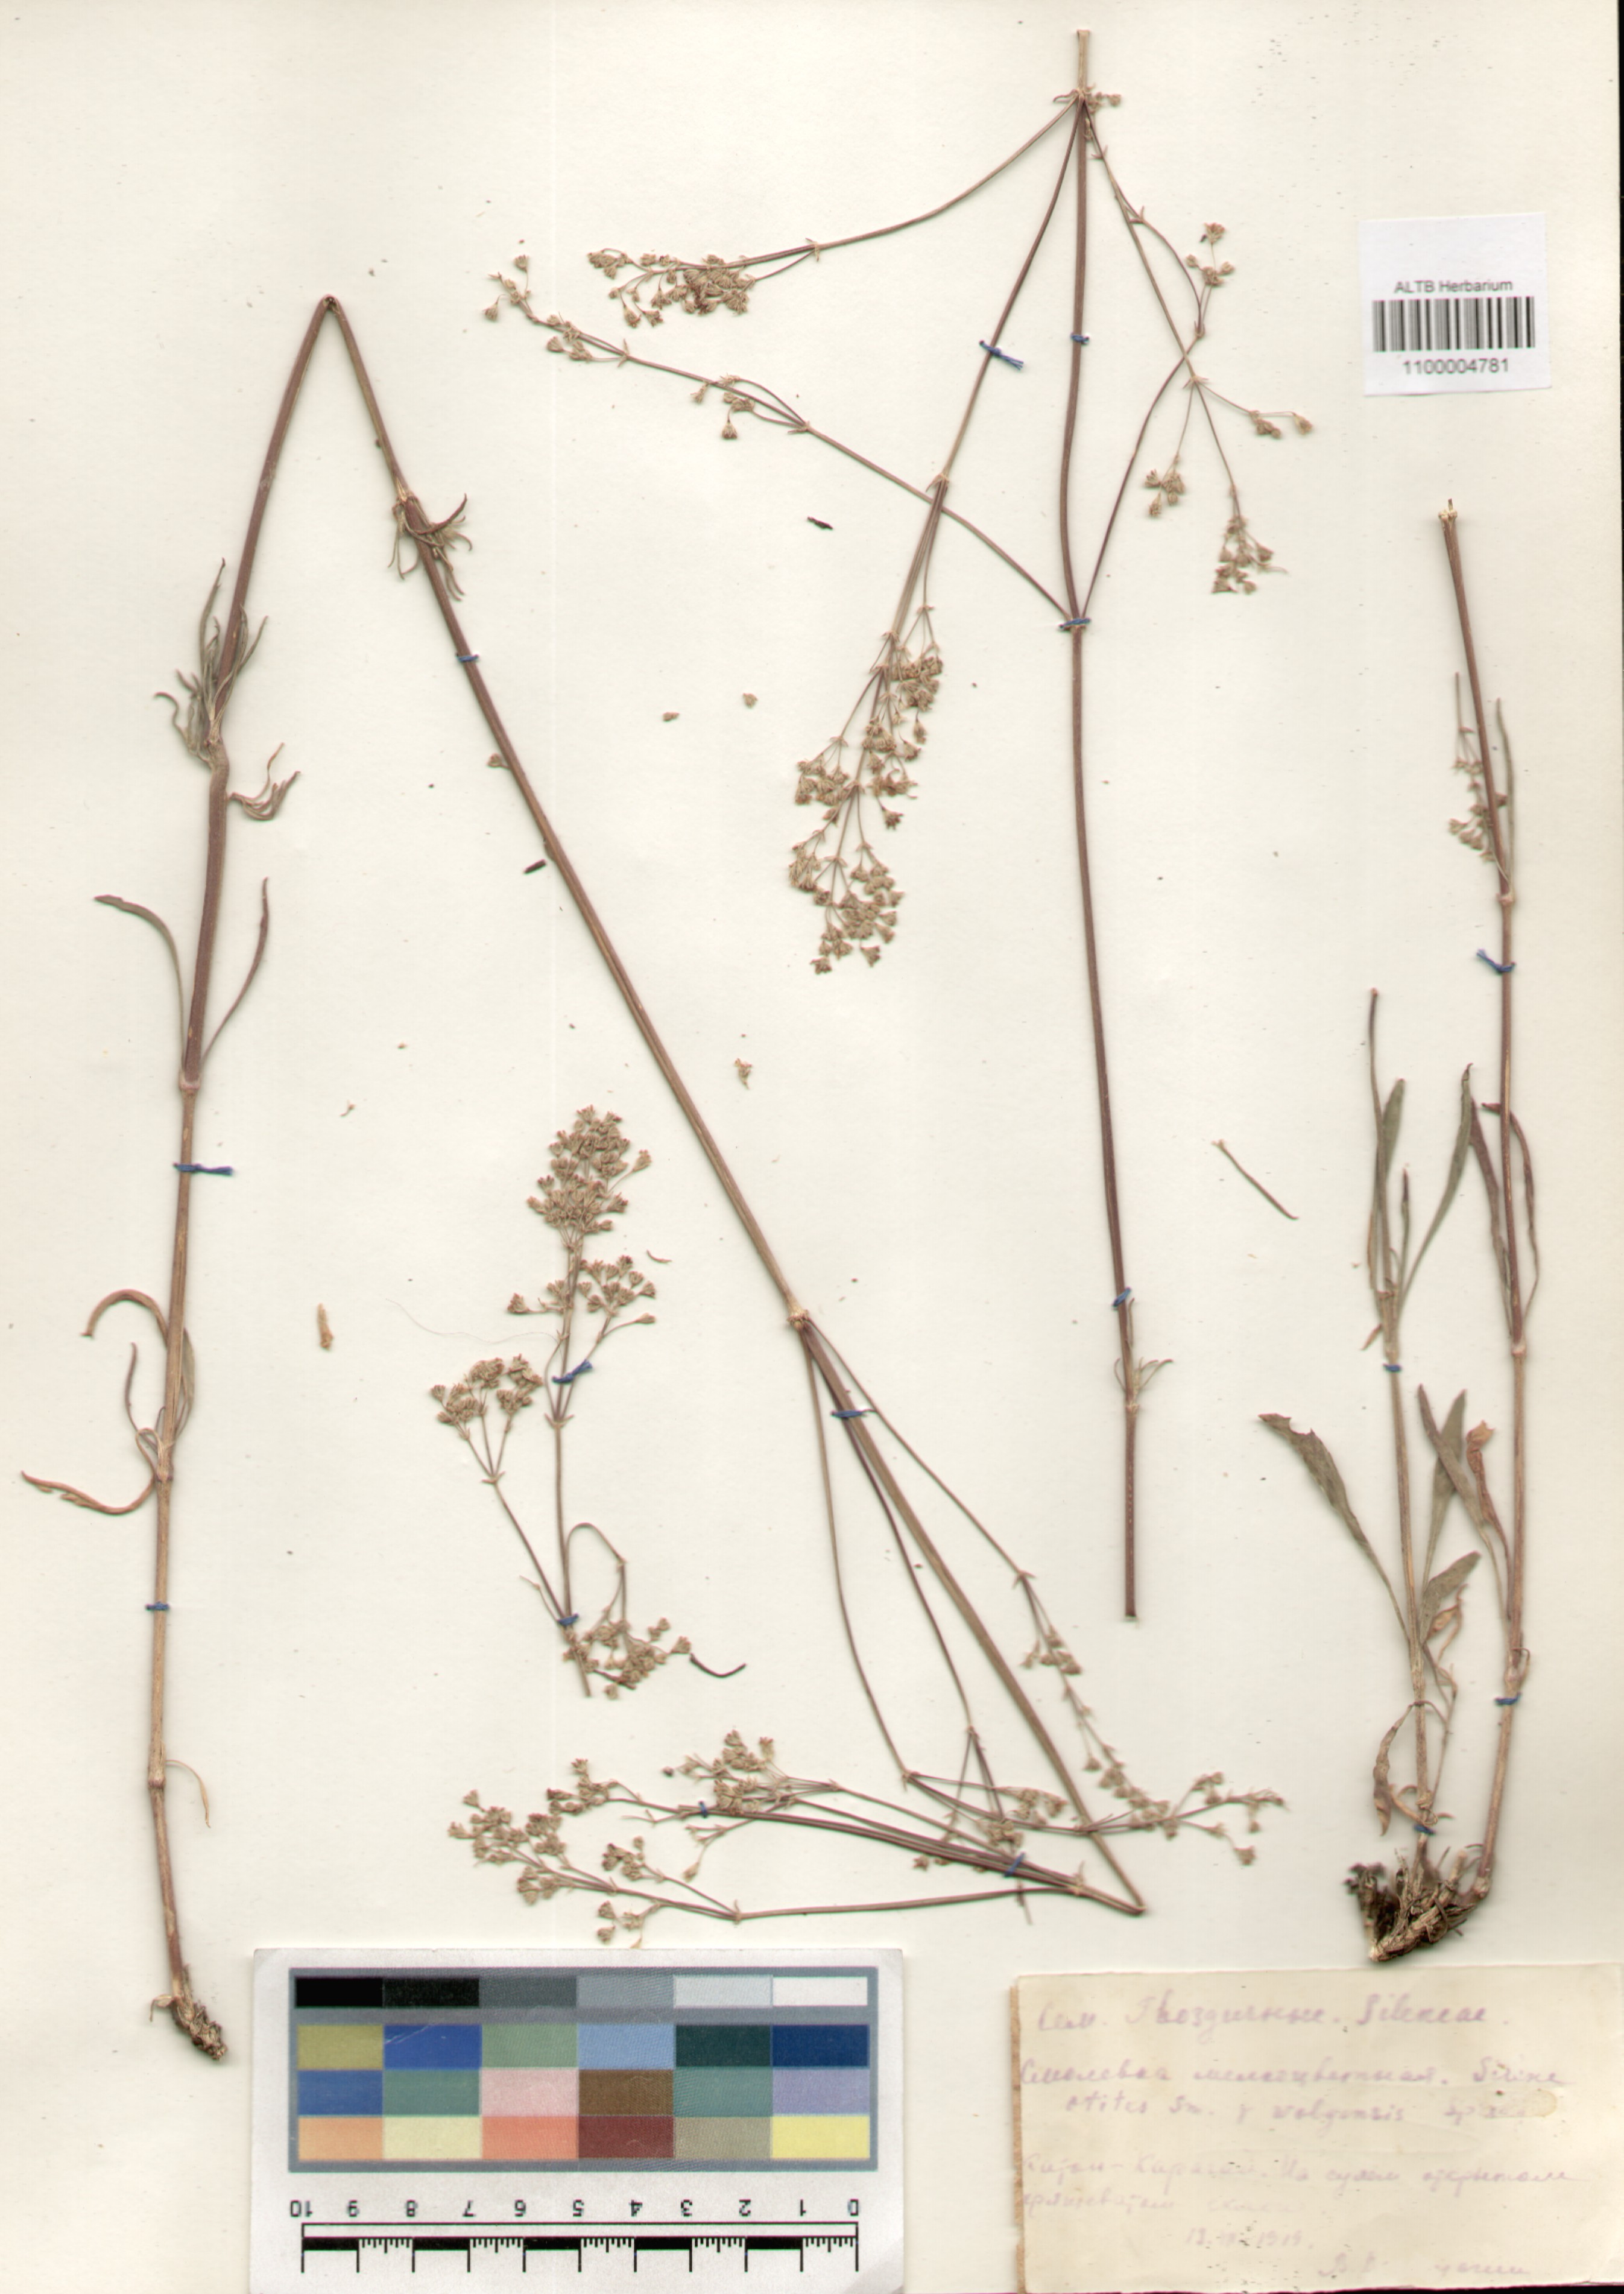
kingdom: Plantae
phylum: Tracheophyta
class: Magnoliopsida
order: Caryophyllales
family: Caryophyllaceae
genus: Silene
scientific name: Silene wolgensis
